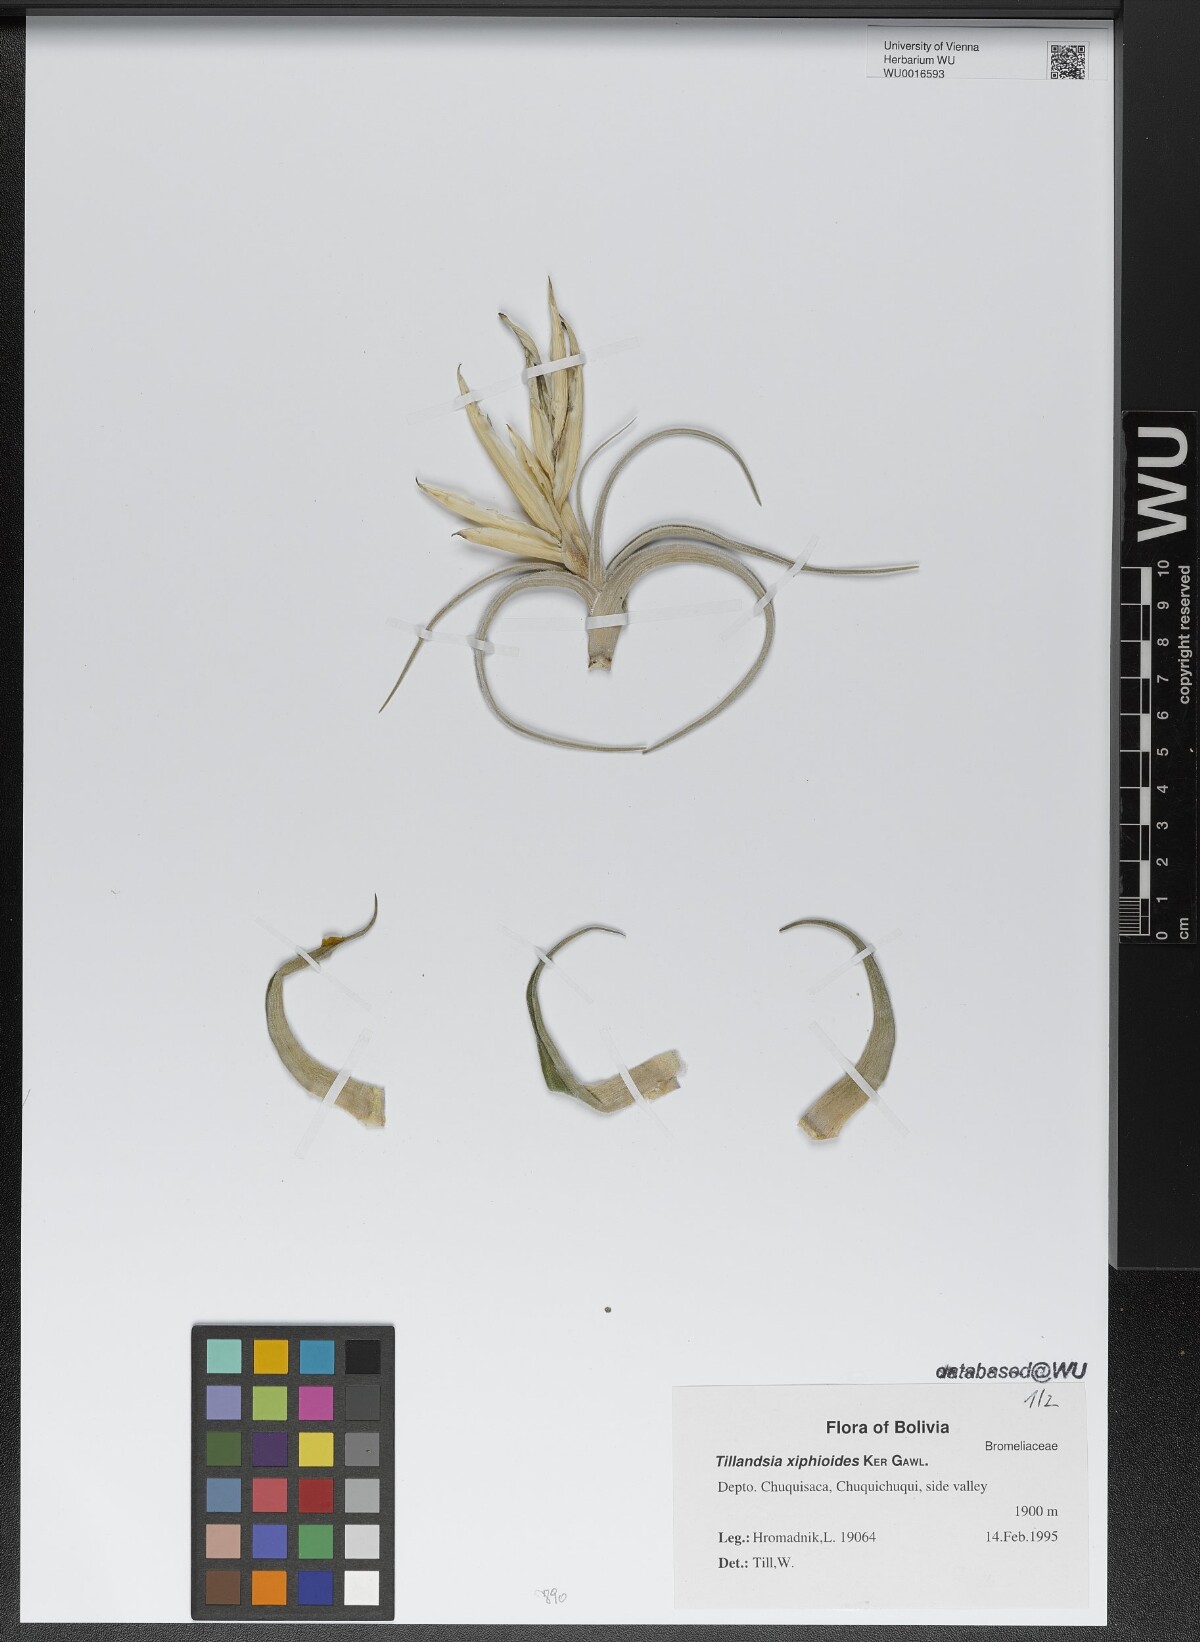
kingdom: Plantae
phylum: Tracheophyta
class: Liliopsida
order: Poales
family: Bromeliaceae
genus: Tillandsia
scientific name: Tillandsia xiphioides
